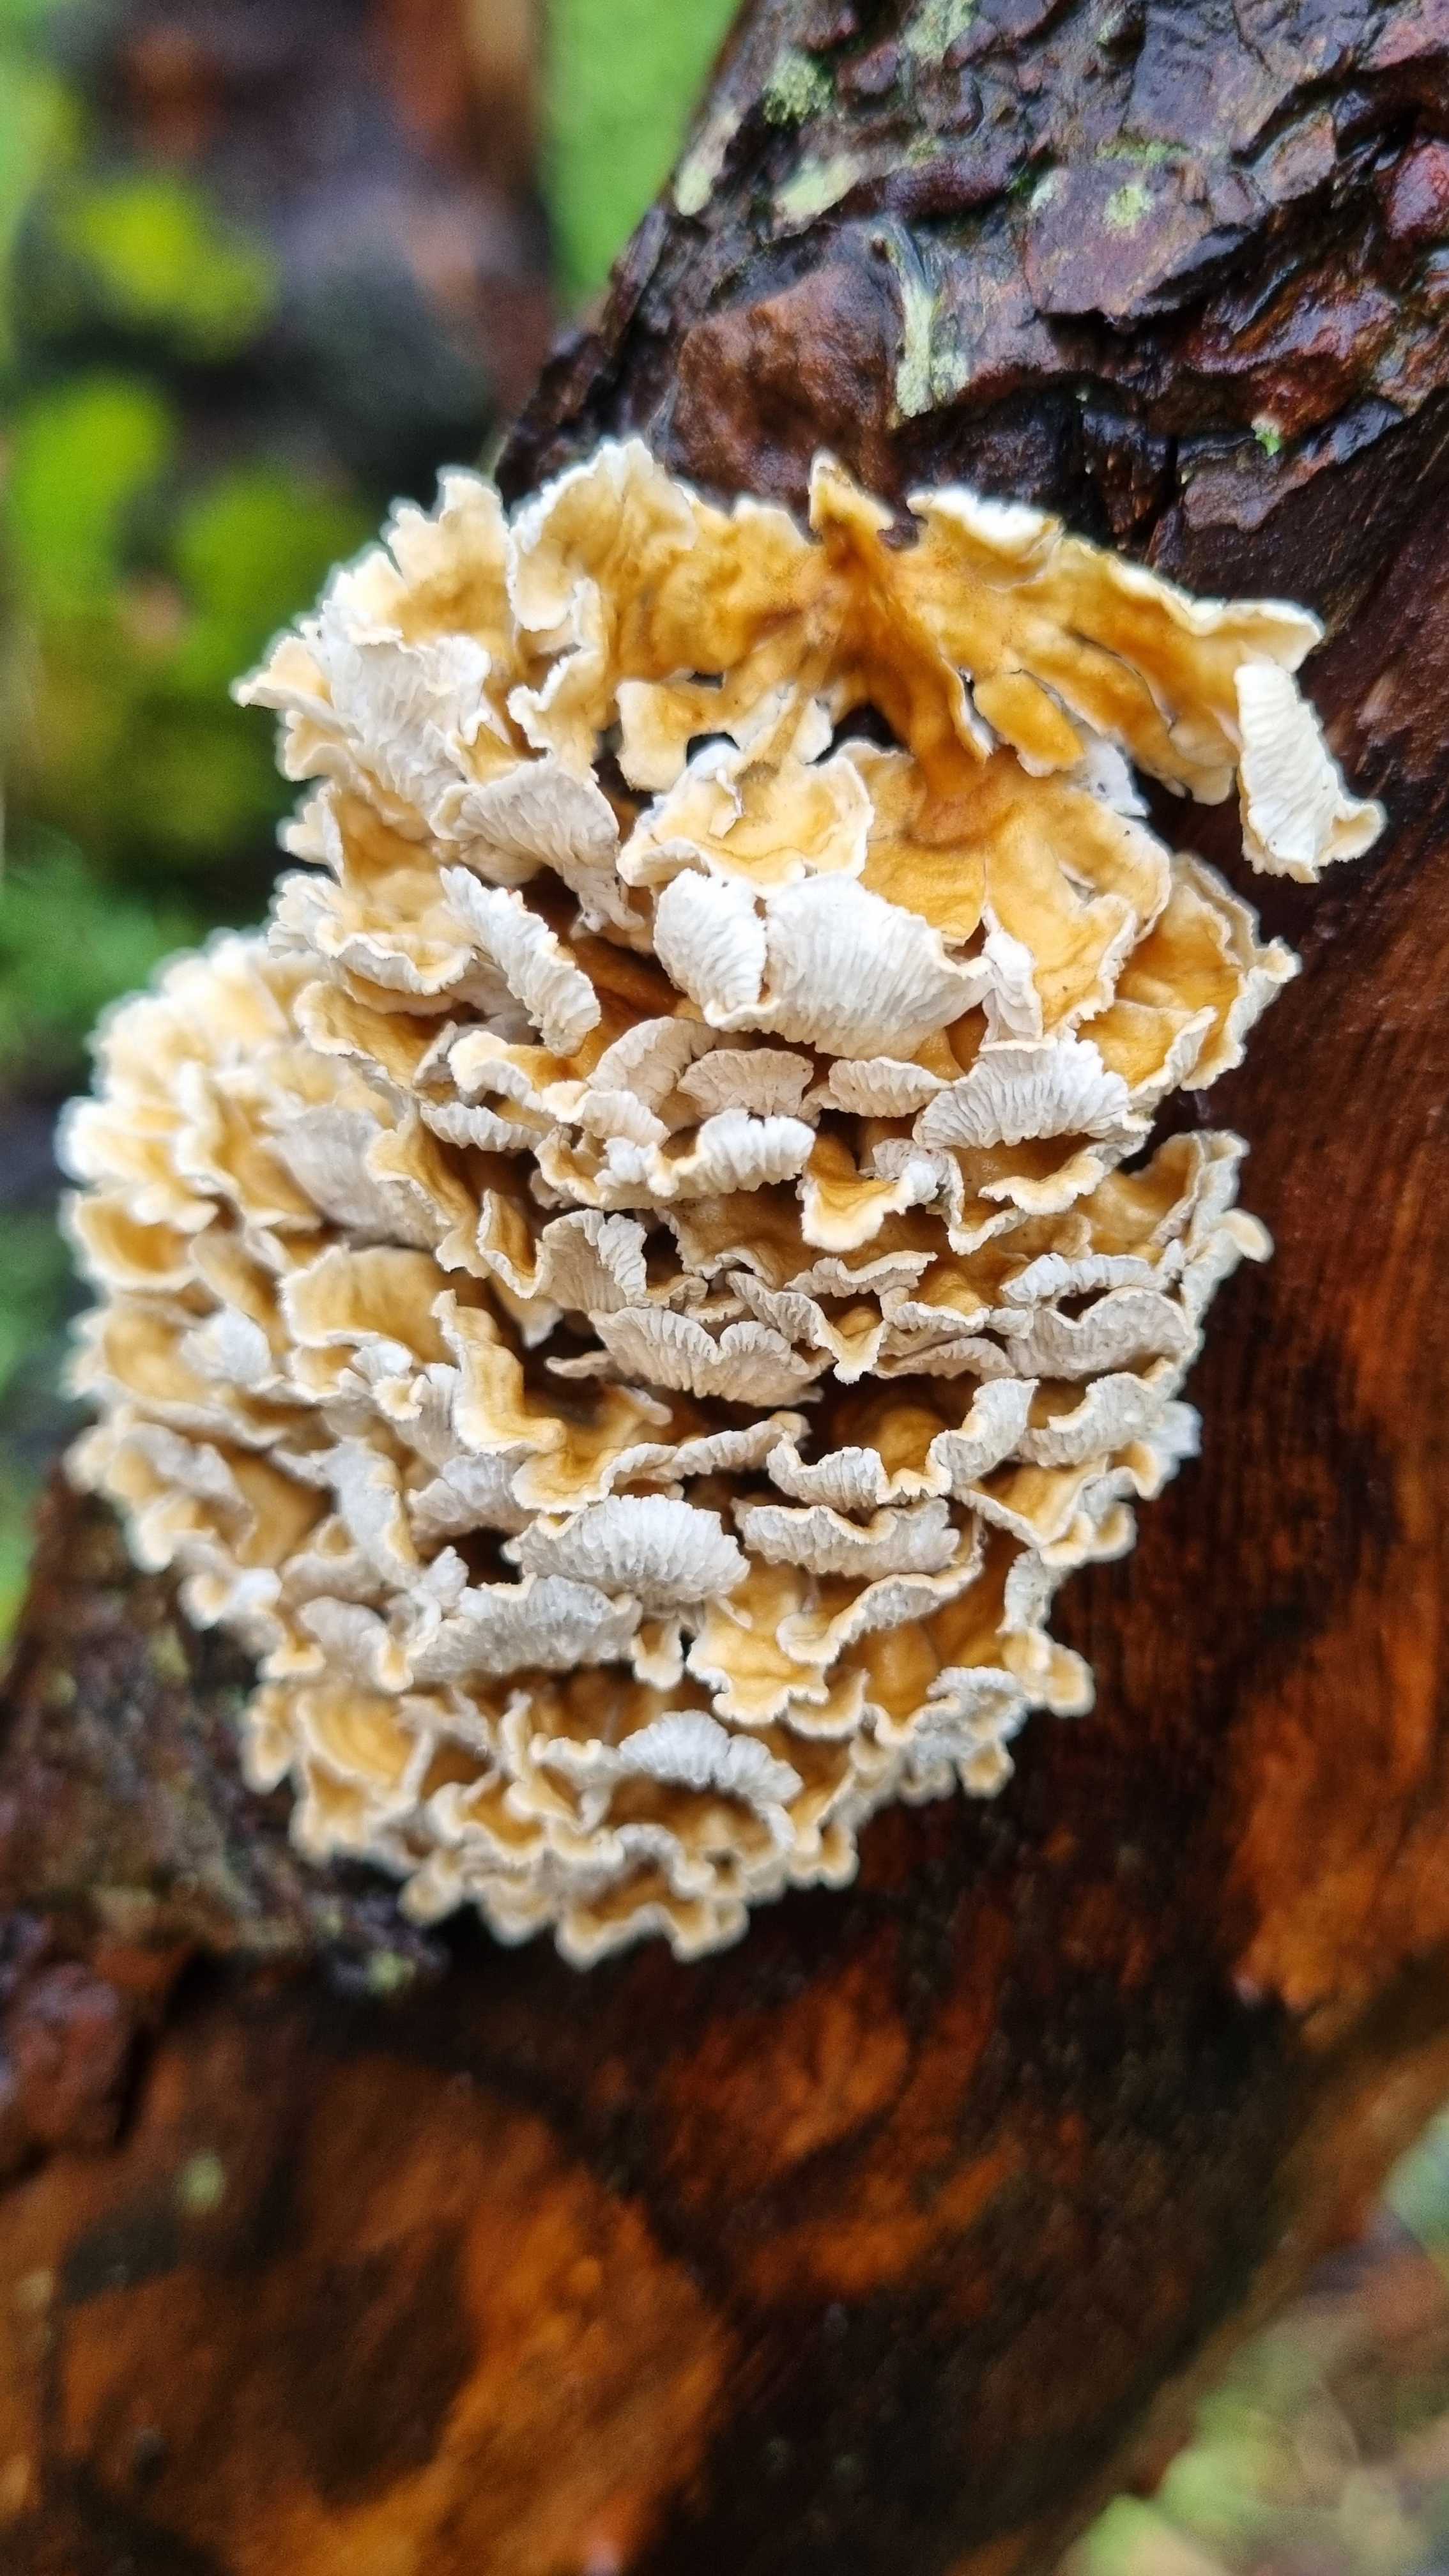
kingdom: Fungi
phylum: Basidiomycota
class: Agaricomycetes
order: Amylocorticiales
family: Amylocorticiaceae
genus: Plicaturopsis
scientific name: Plicaturopsis crispa
